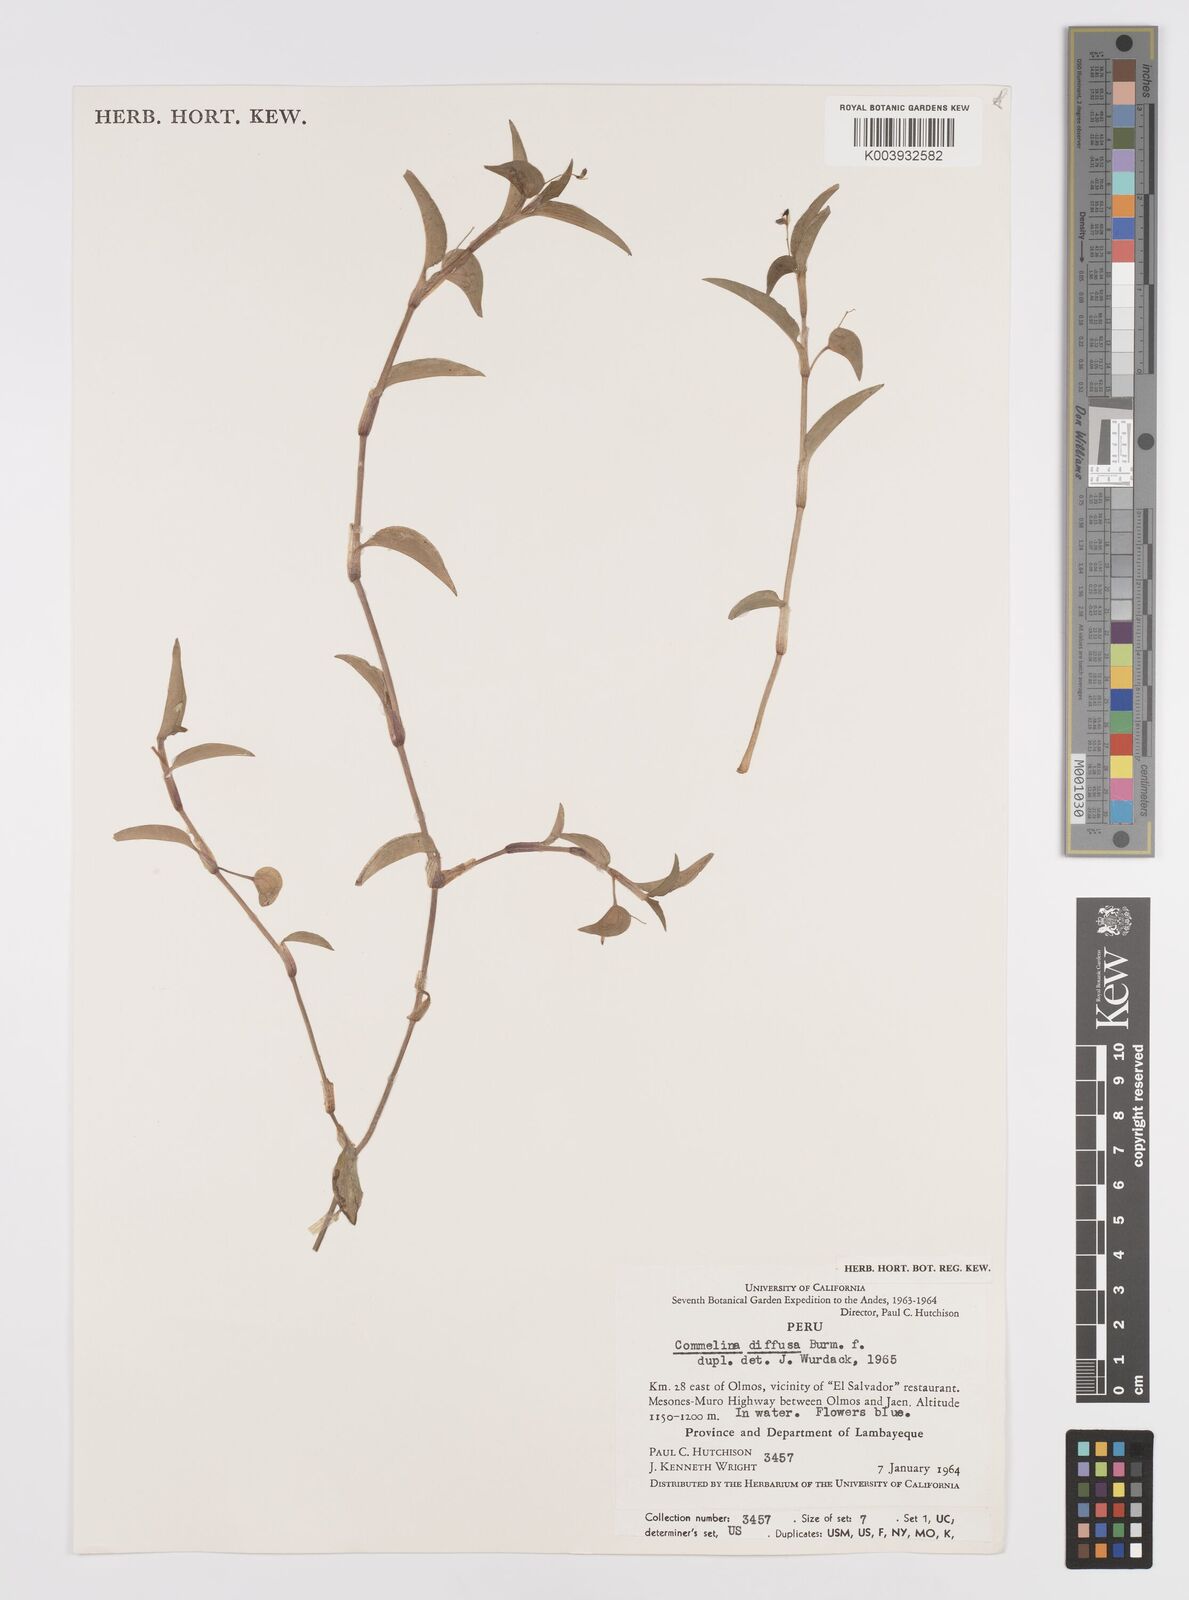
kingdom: Plantae
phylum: Tracheophyta
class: Liliopsida
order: Commelinales
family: Commelinaceae
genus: Commelina
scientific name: Commelina diffusa
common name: Climbing dayflower
